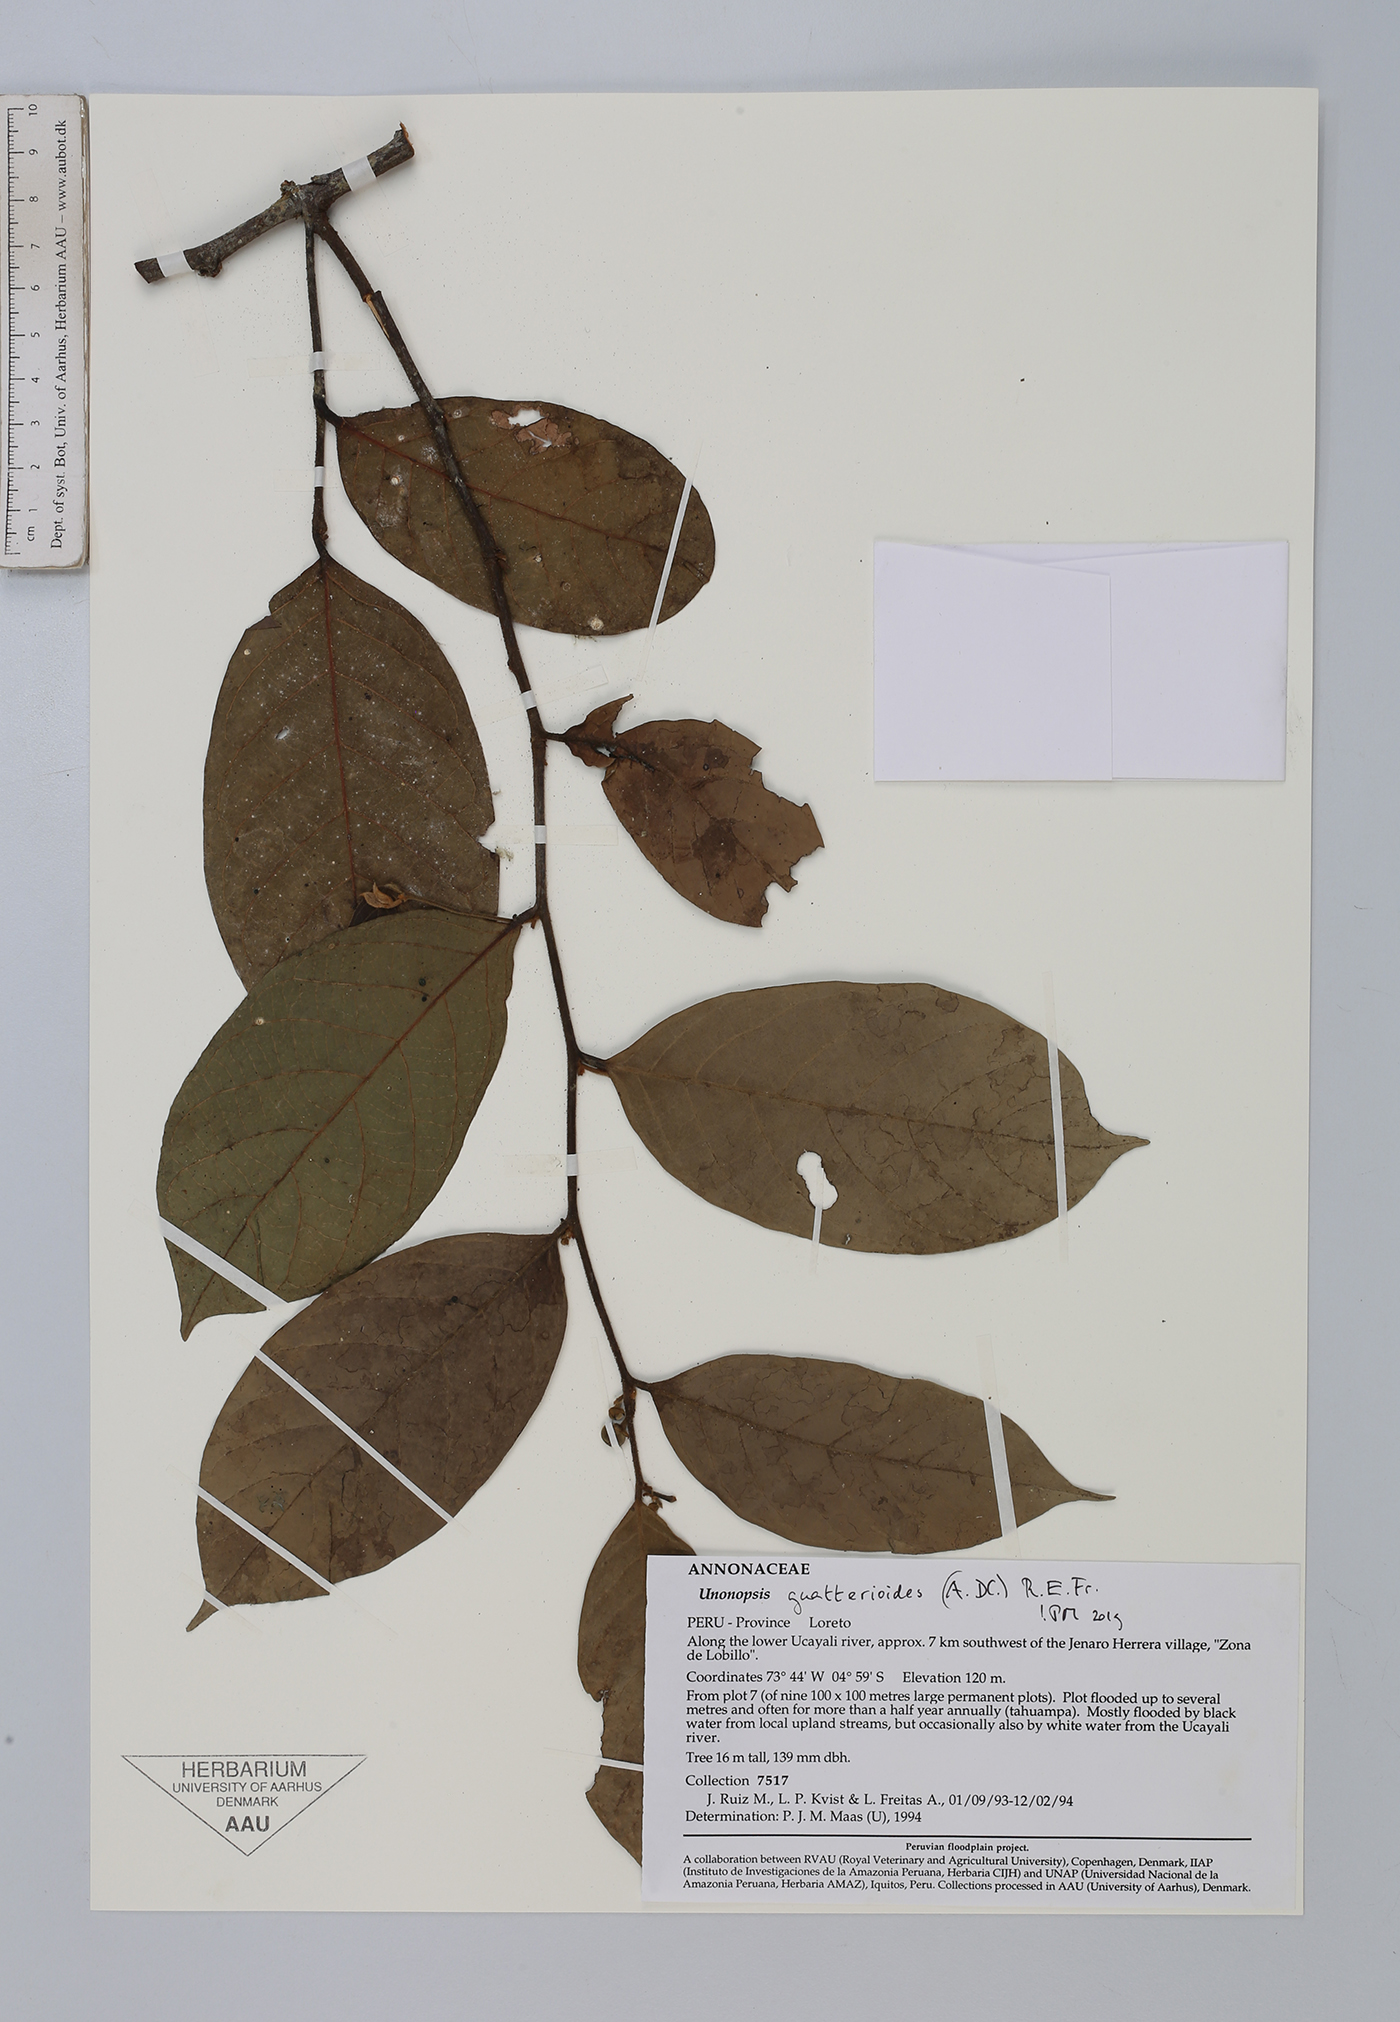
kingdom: Plantae
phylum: Tracheophyta
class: Magnoliopsida
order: Magnoliales
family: Annonaceae
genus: Unonopsis
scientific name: Unonopsis guatterioides
